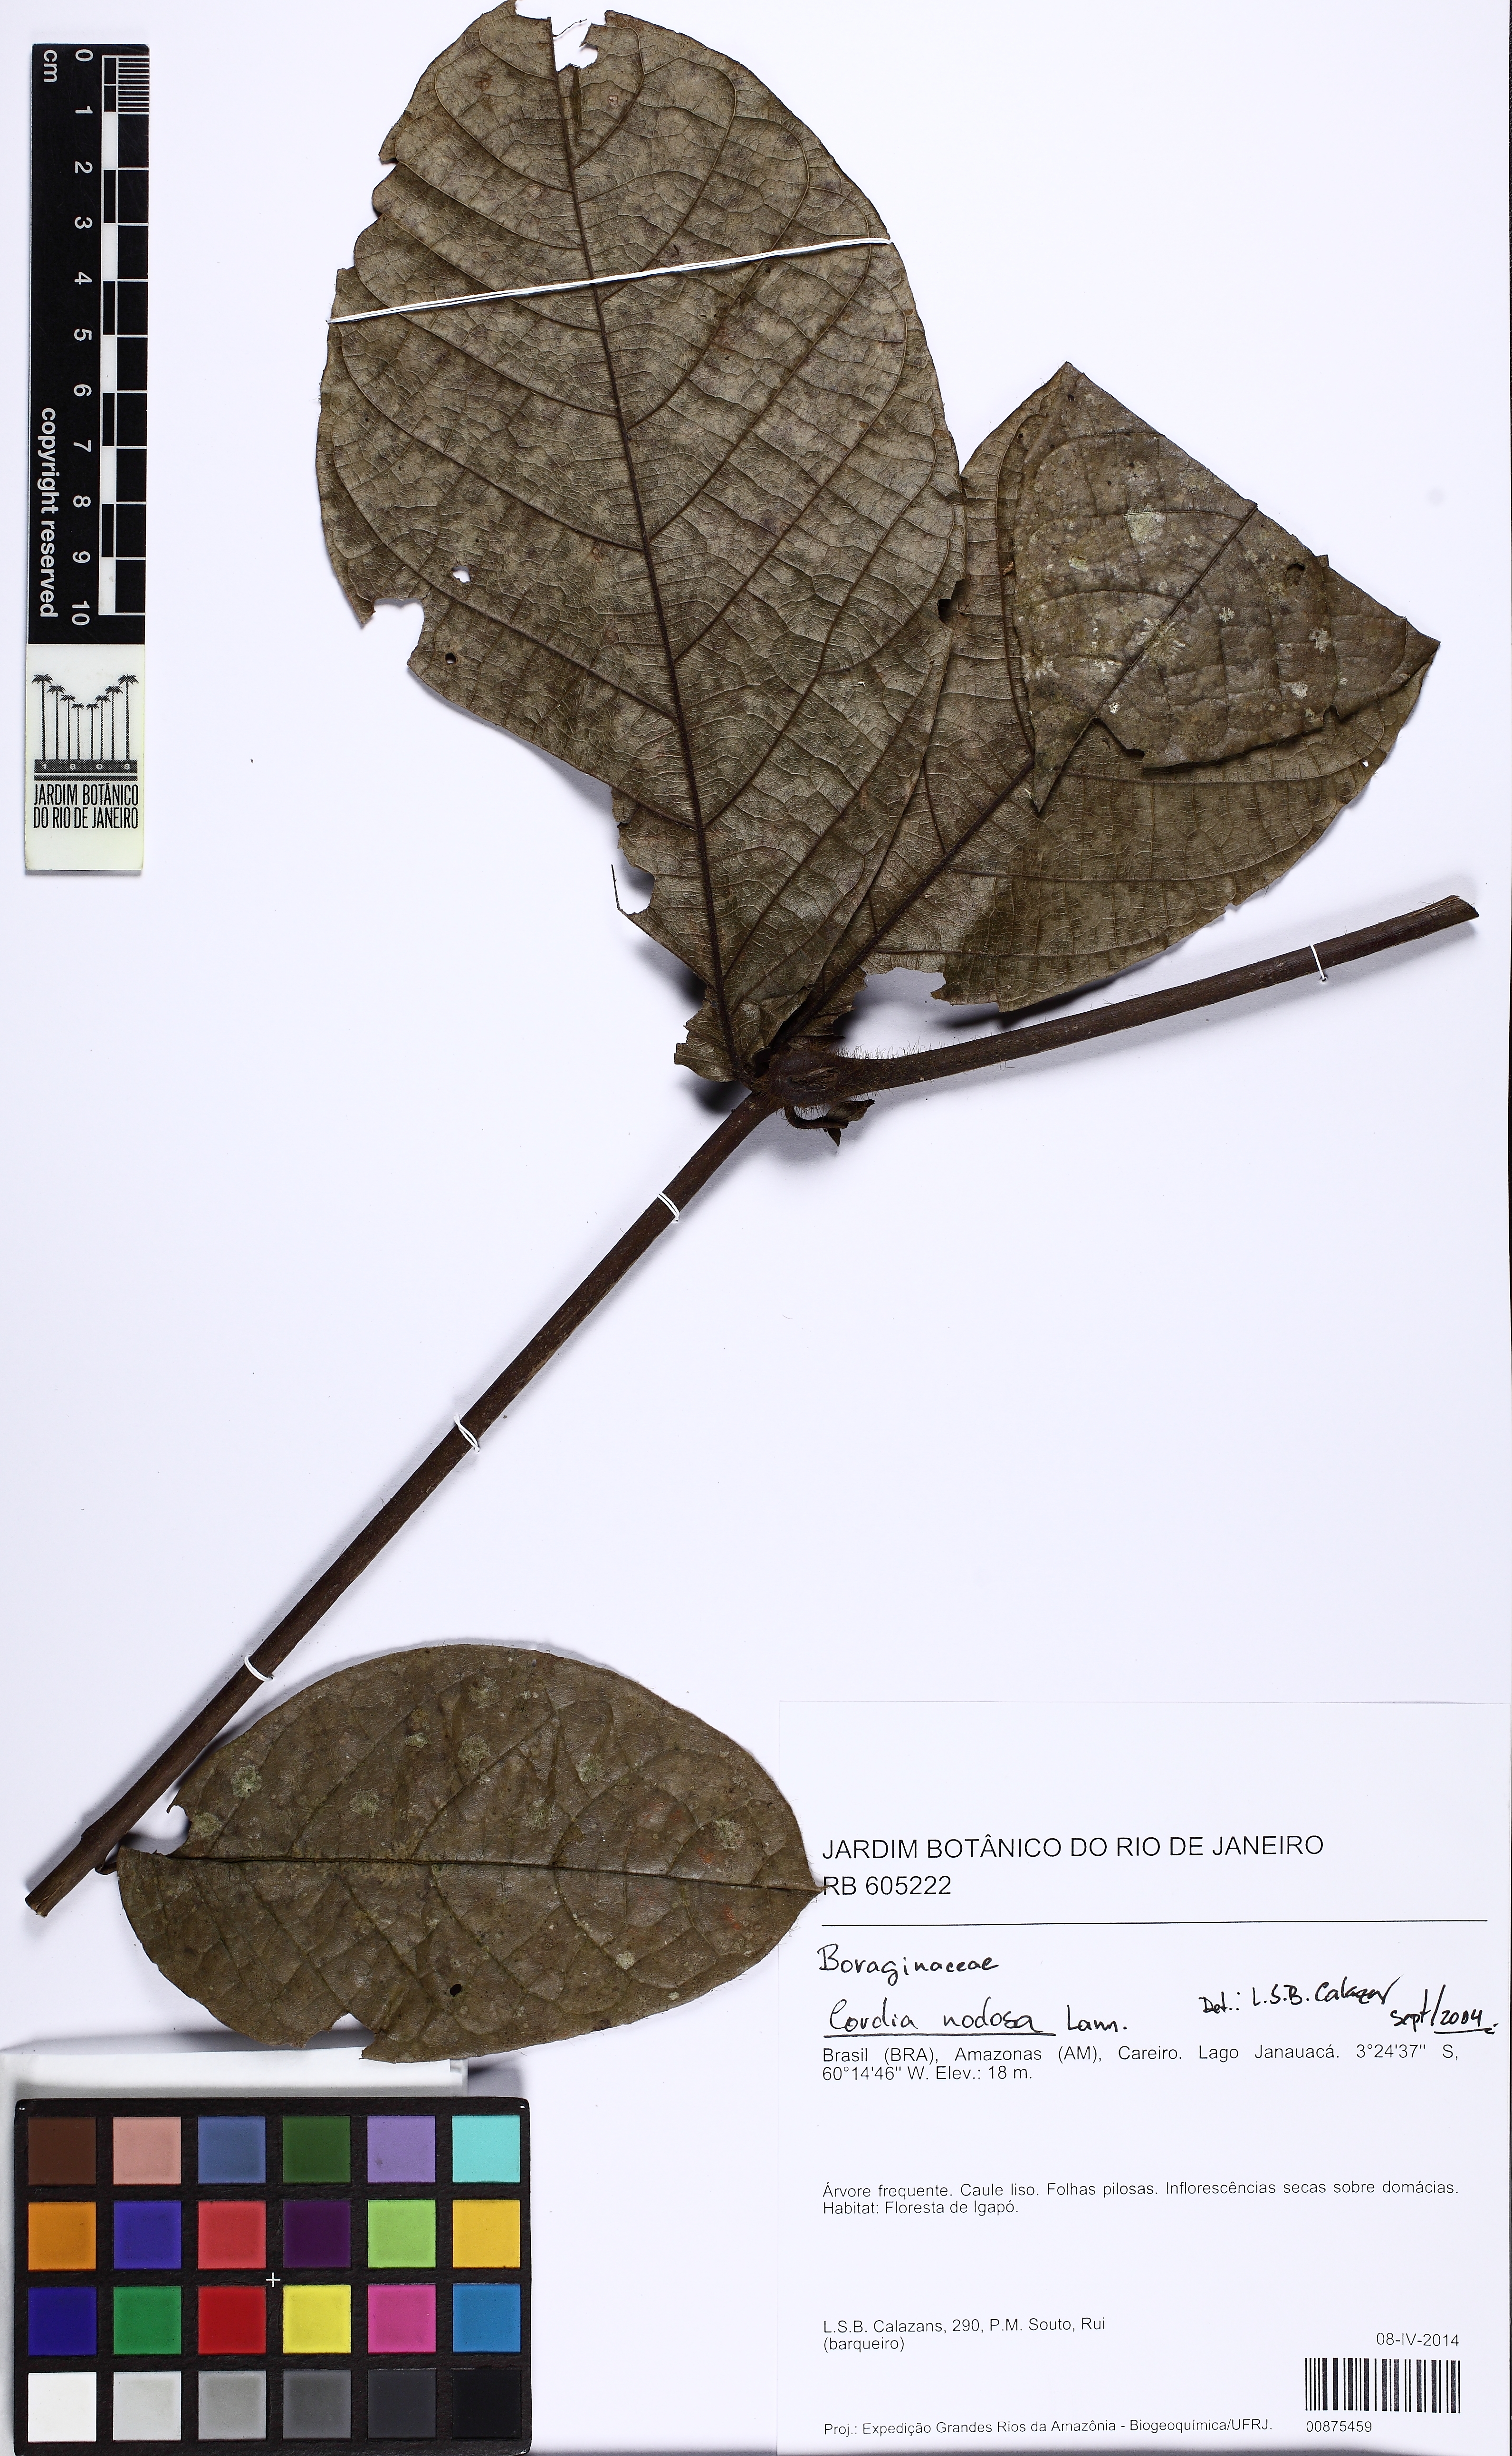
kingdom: Plantae
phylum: Tracheophyta
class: Magnoliopsida
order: Boraginales
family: Cordiaceae
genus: Cordia
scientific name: Cordia nodosa
